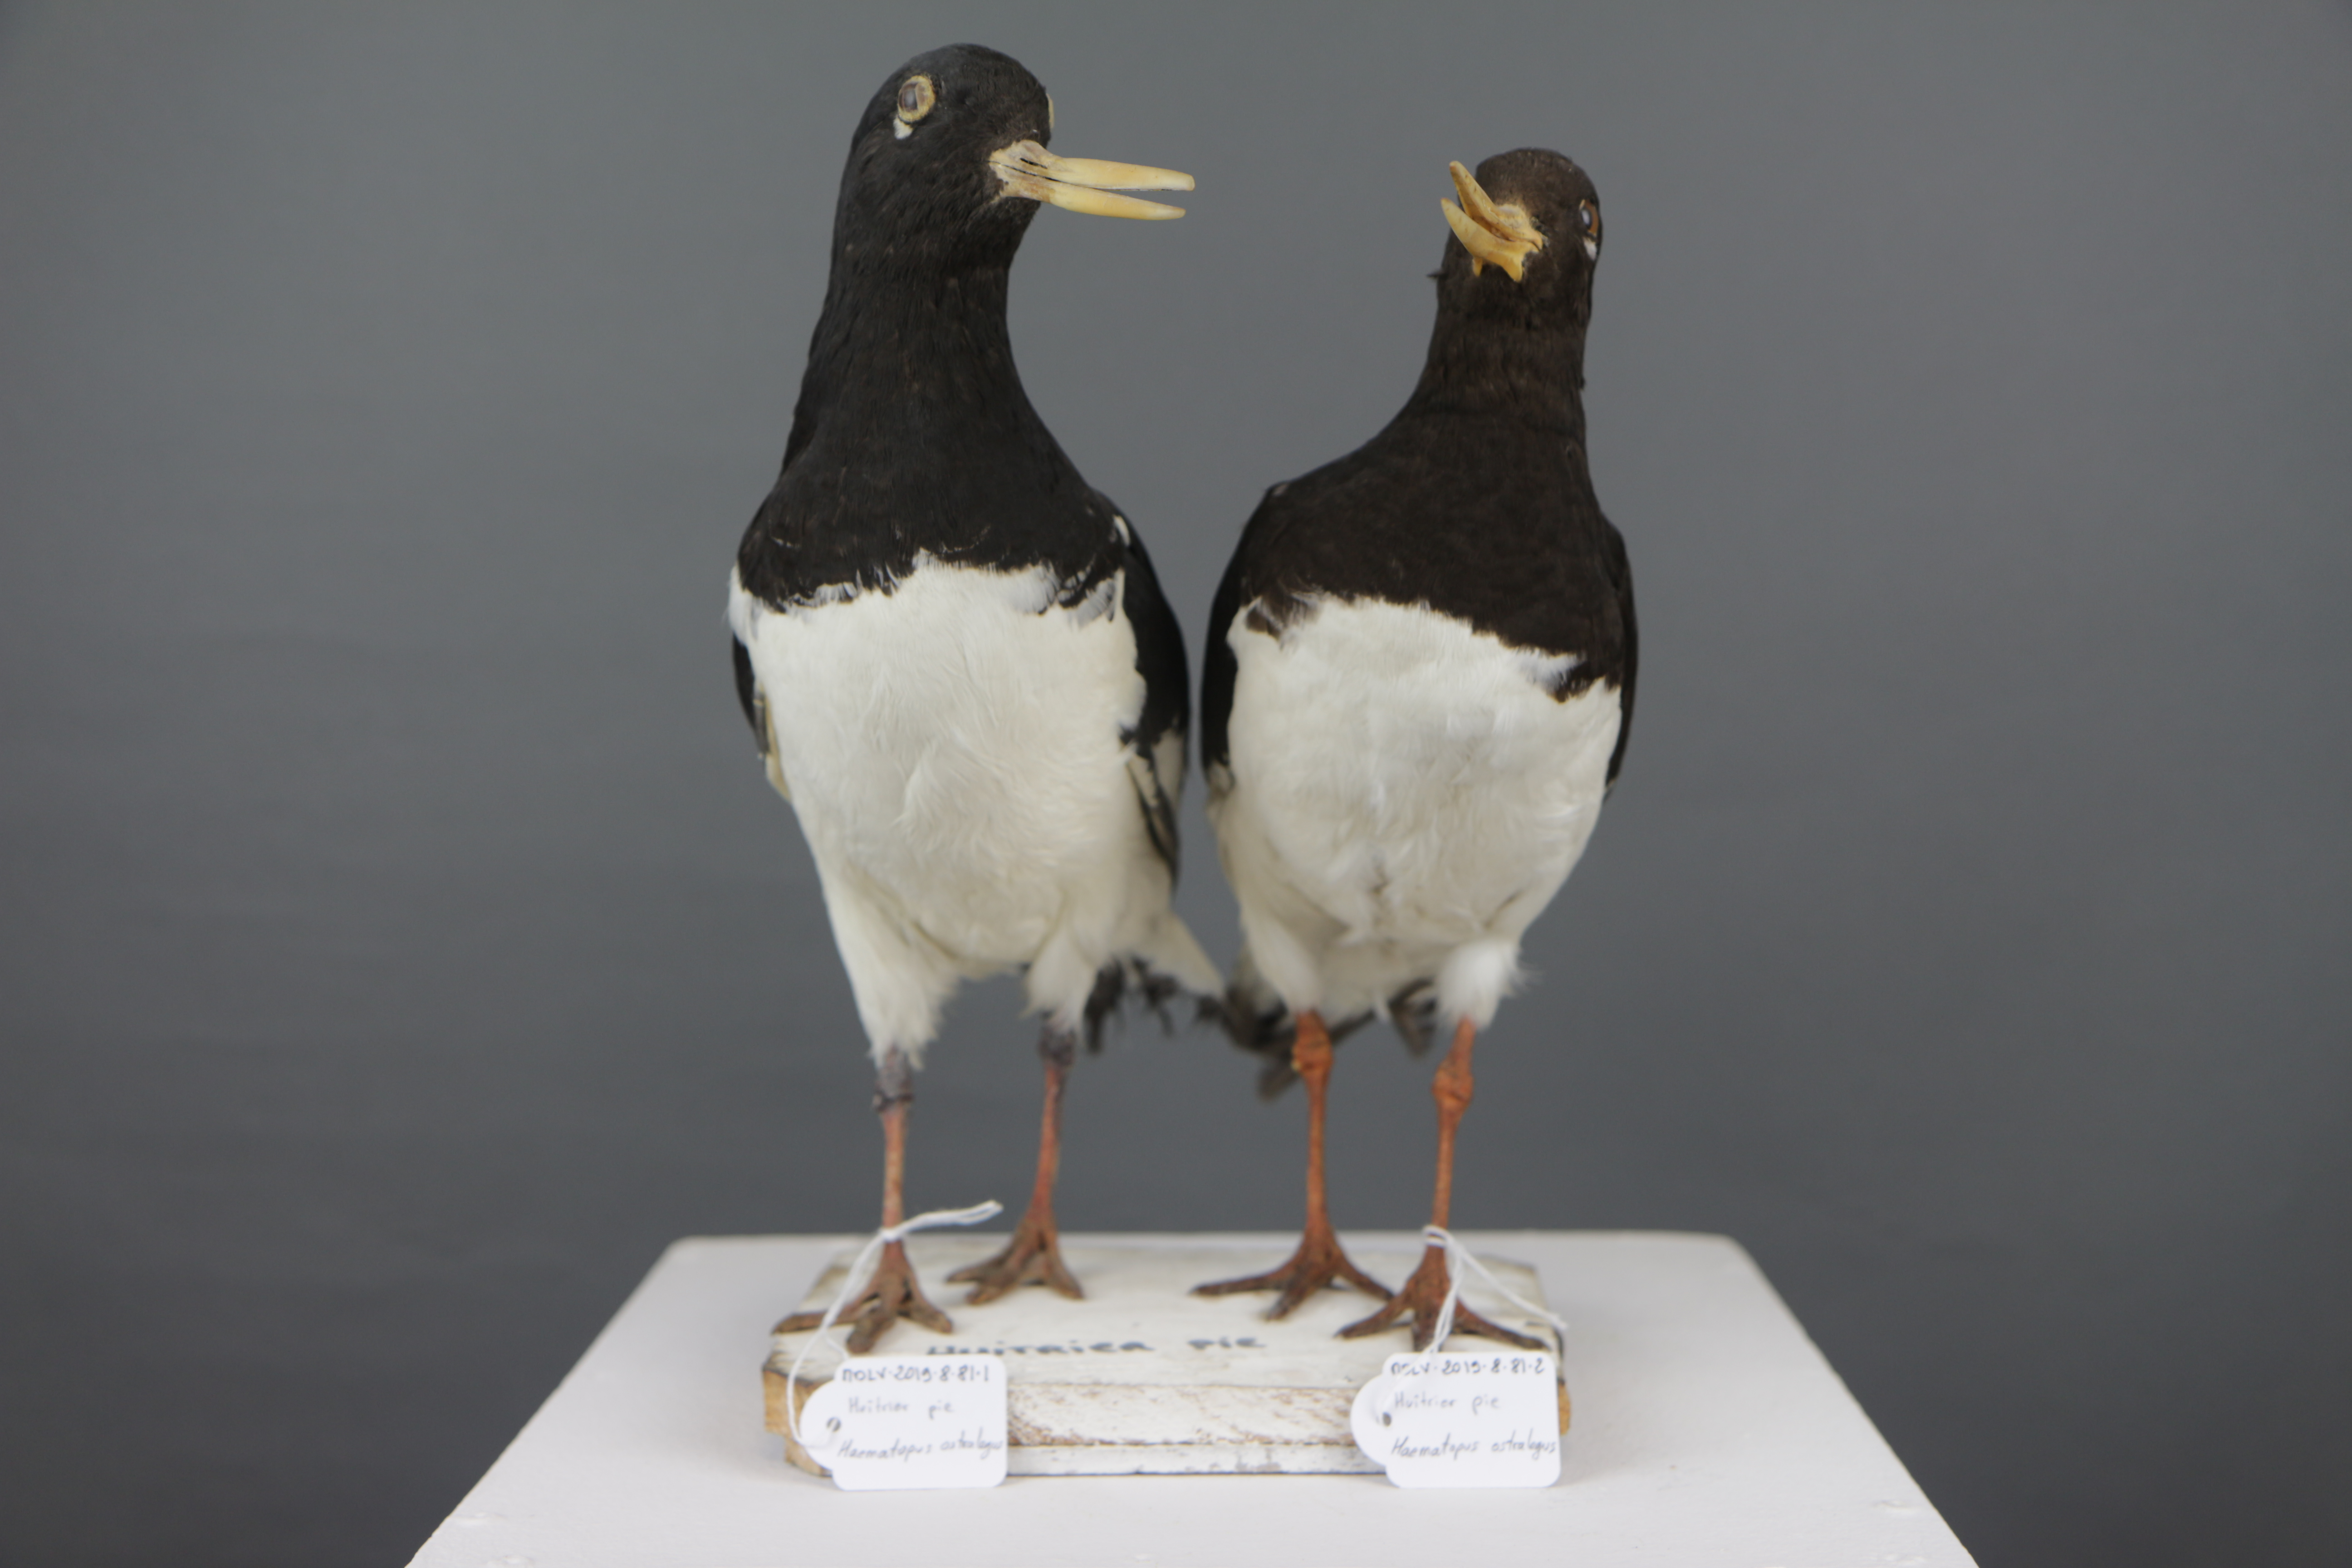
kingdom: Animalia
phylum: Chordata
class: Aves
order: Charadriiformes
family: Haematopodidae
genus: Haematopus
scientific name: Haematopus ostralegus
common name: Eurasian oystercatcher
